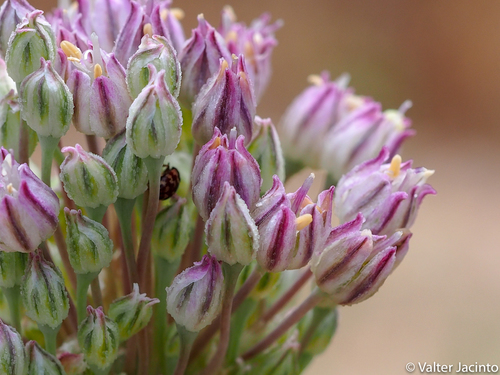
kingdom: Plantae
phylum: Tracheophyta
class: Liliopsida
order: Asparagales
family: Amaryllidaceae
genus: Allium
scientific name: Allium ampeloprasum
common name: Wild leek
